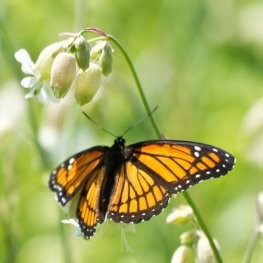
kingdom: Animalia
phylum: Arthropoda
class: Insecta
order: Lepidoptera
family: Nymphalidae
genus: Limenitis
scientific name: Limenitis archippus
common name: Viceroy
